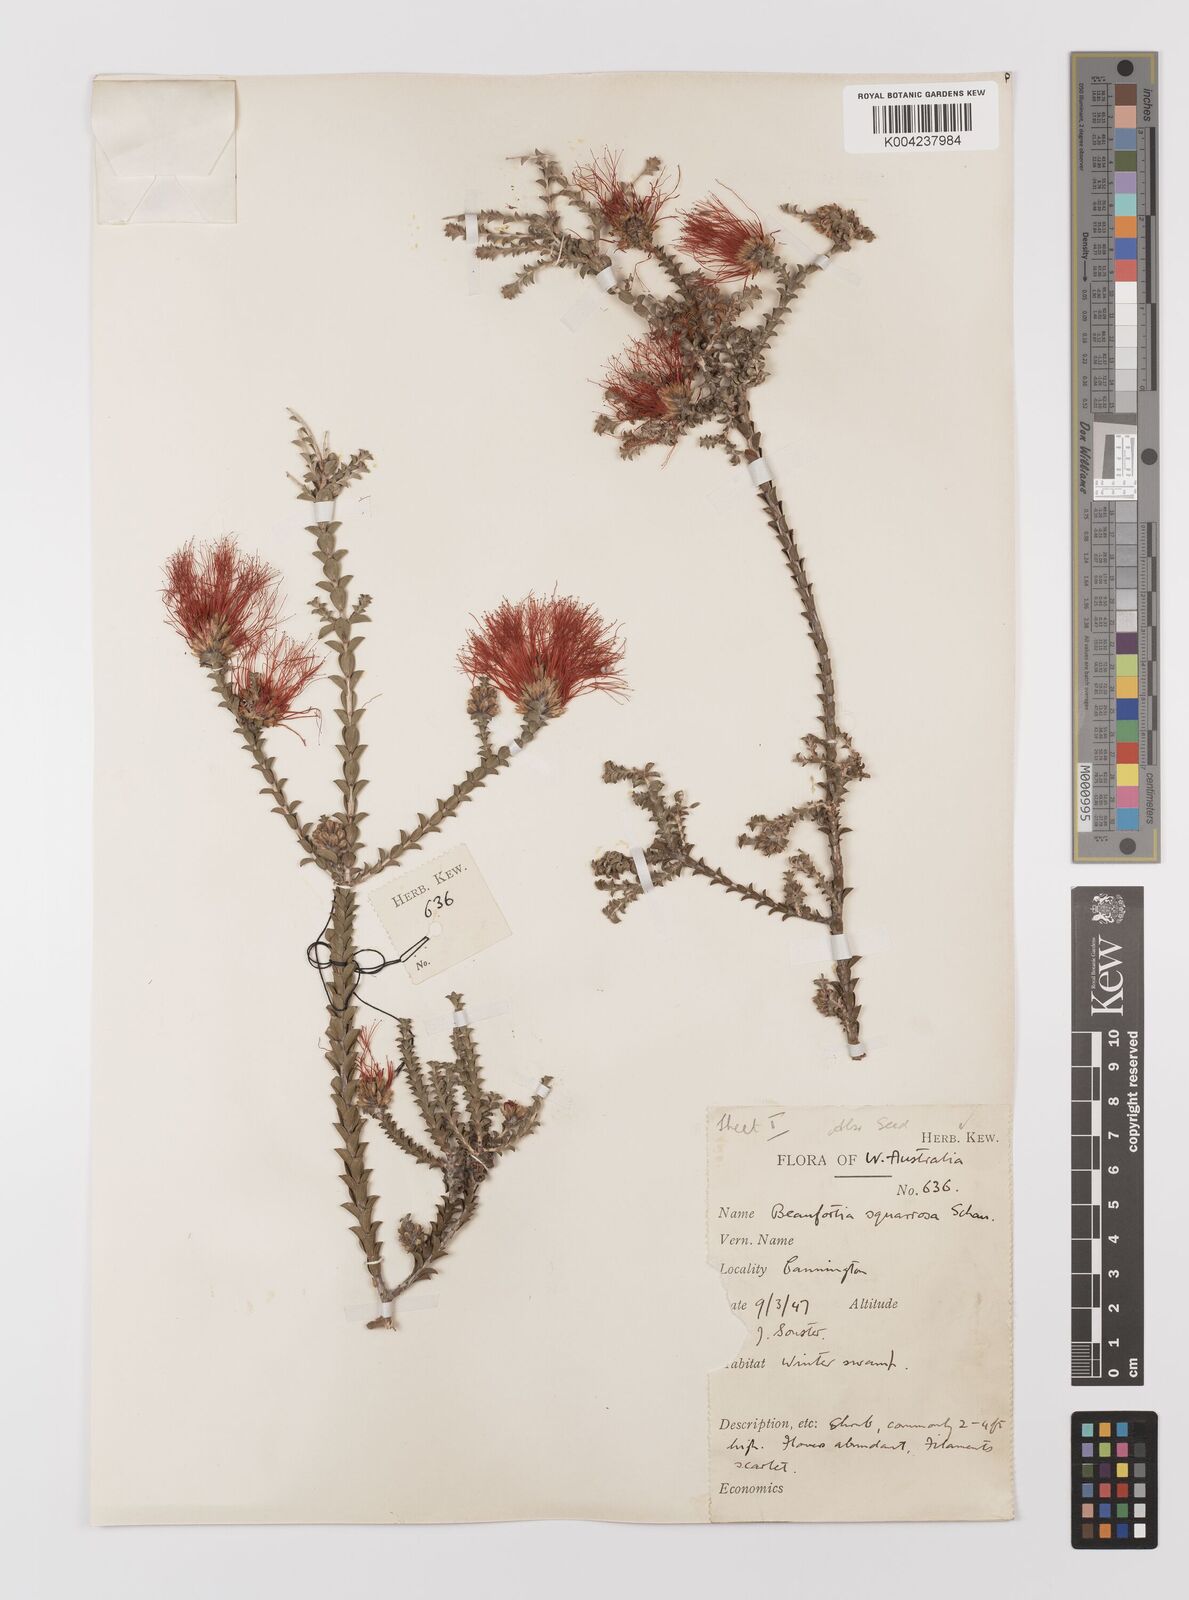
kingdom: Plantae
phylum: Tracheophyta
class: Magnoliopsida
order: Myrtales
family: Myrtaceae
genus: Melaleuca
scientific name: Melaleuca pulcherrima
